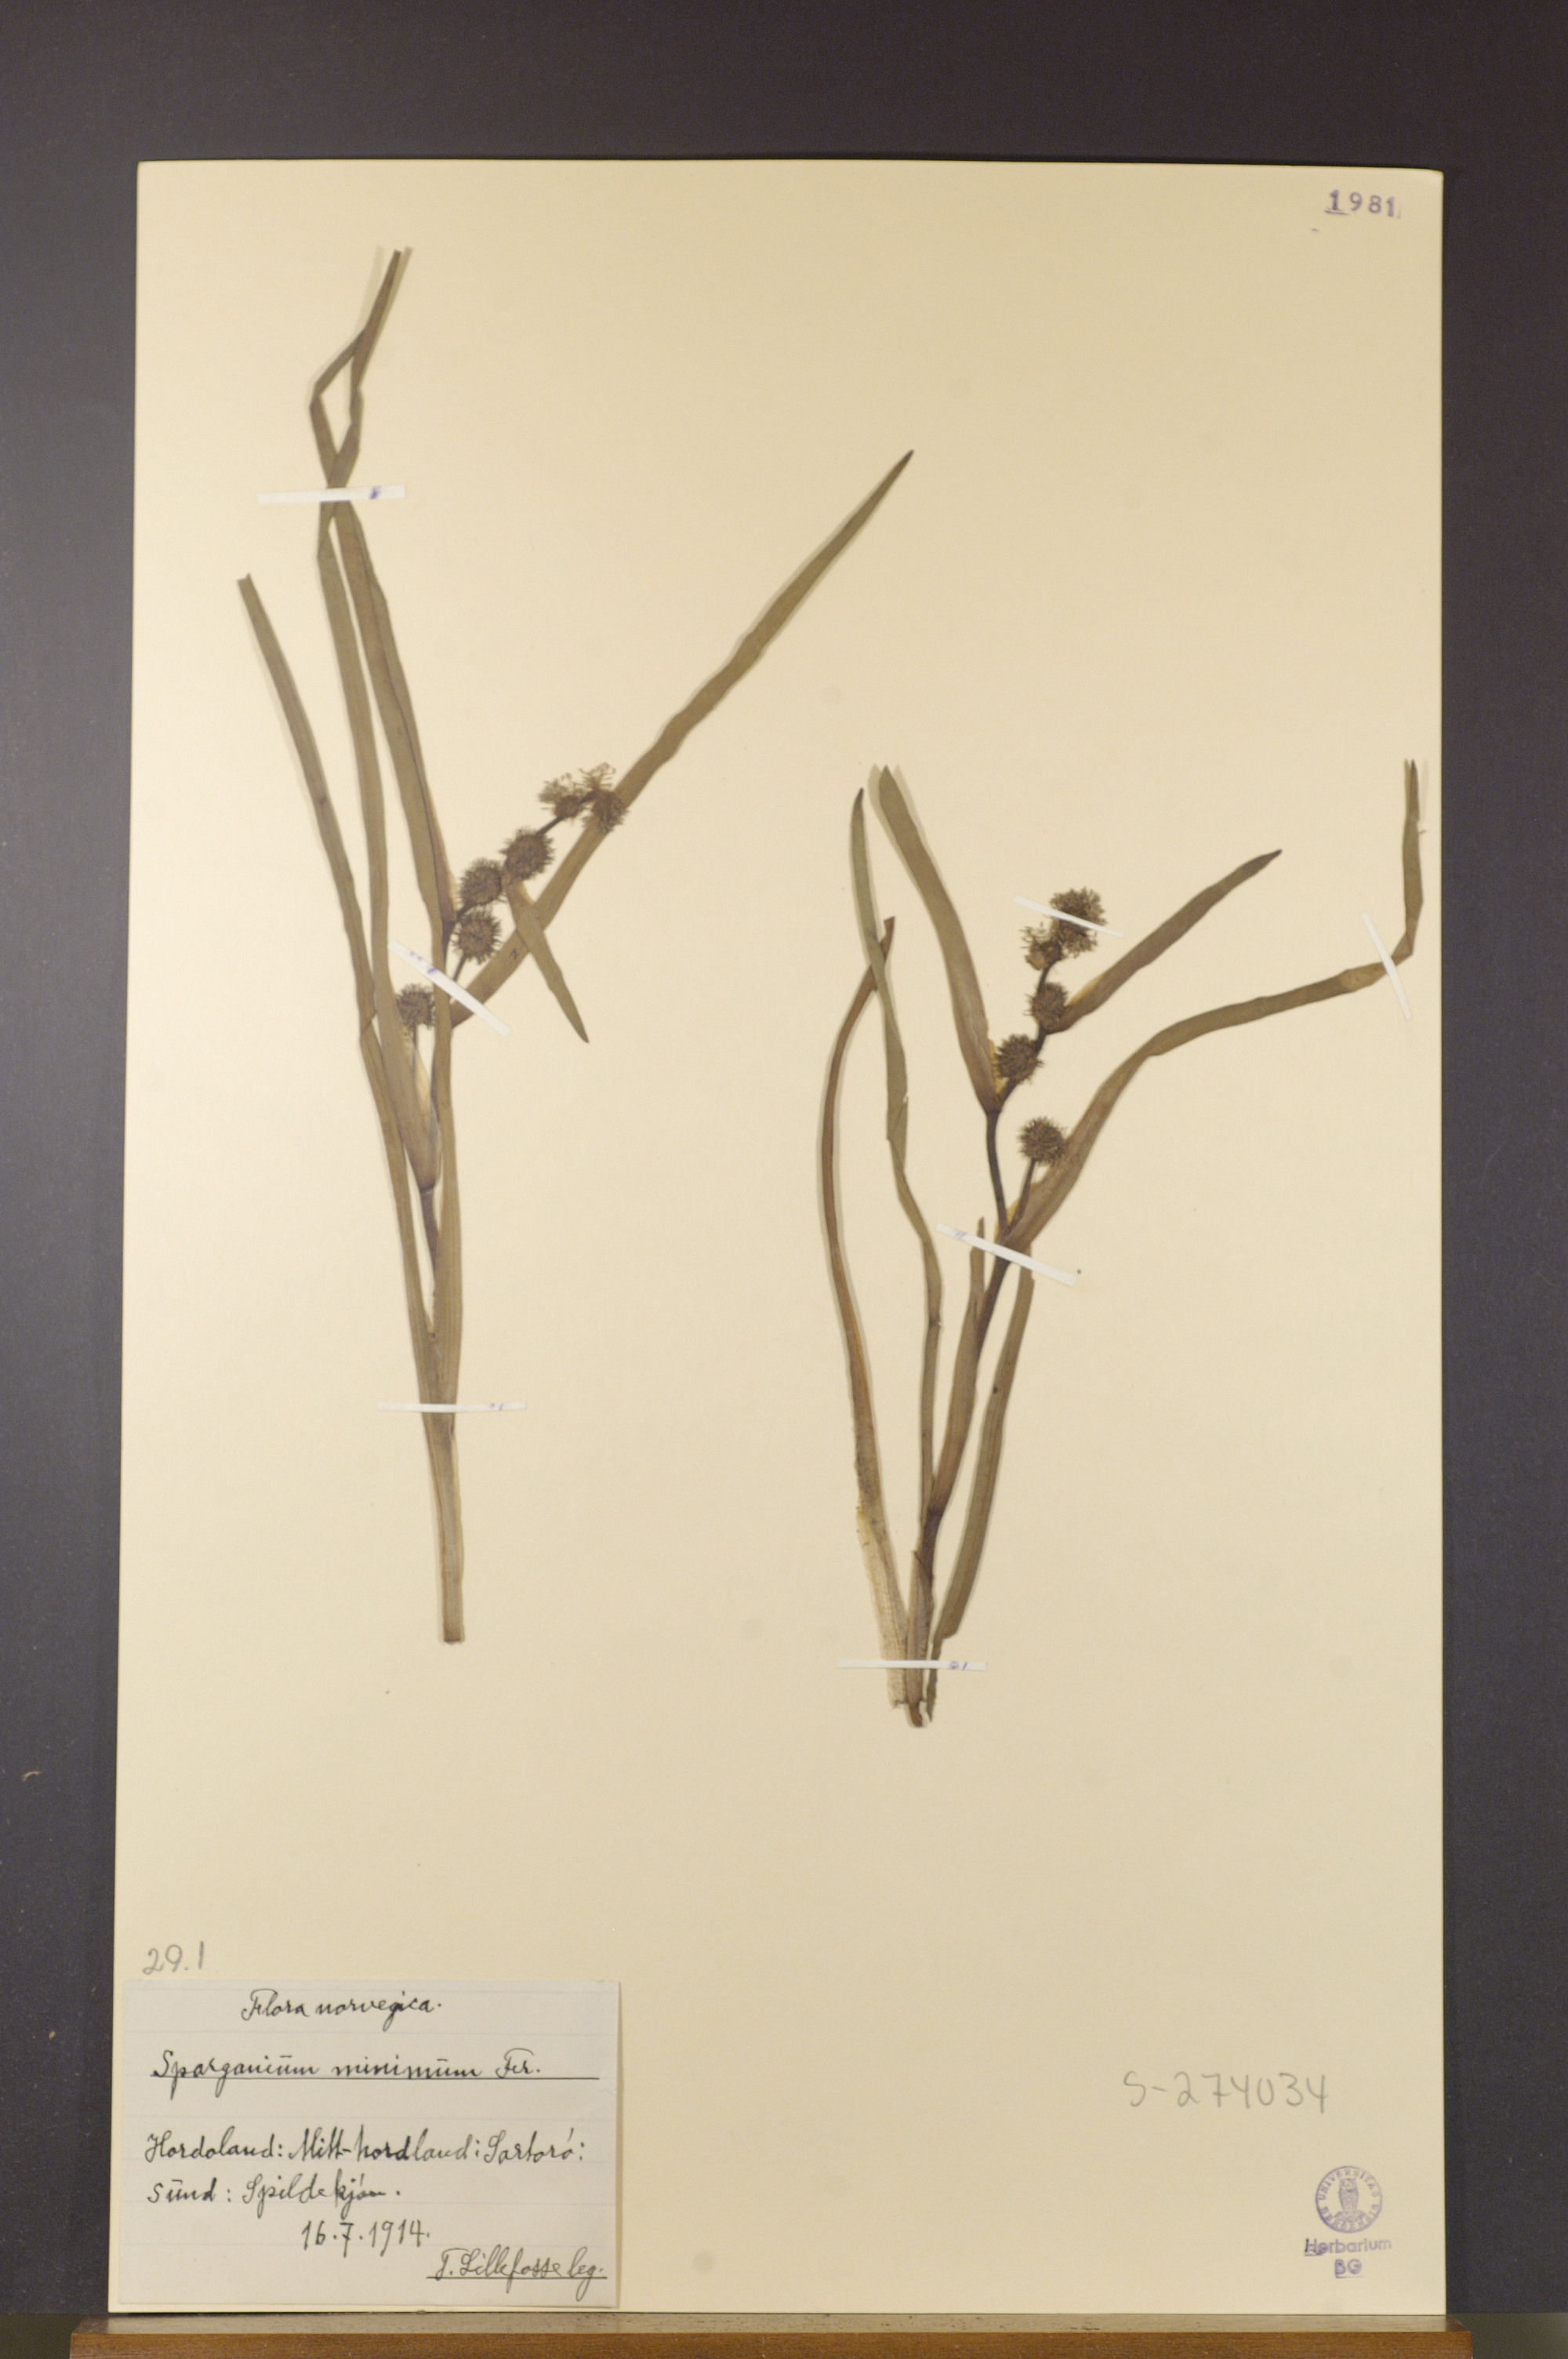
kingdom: Plantae
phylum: Tracheophyta
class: Liliopsida
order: Poales
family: Typhaceae
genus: Sparganium
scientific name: Sparganium natans
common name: Least bur-reed
